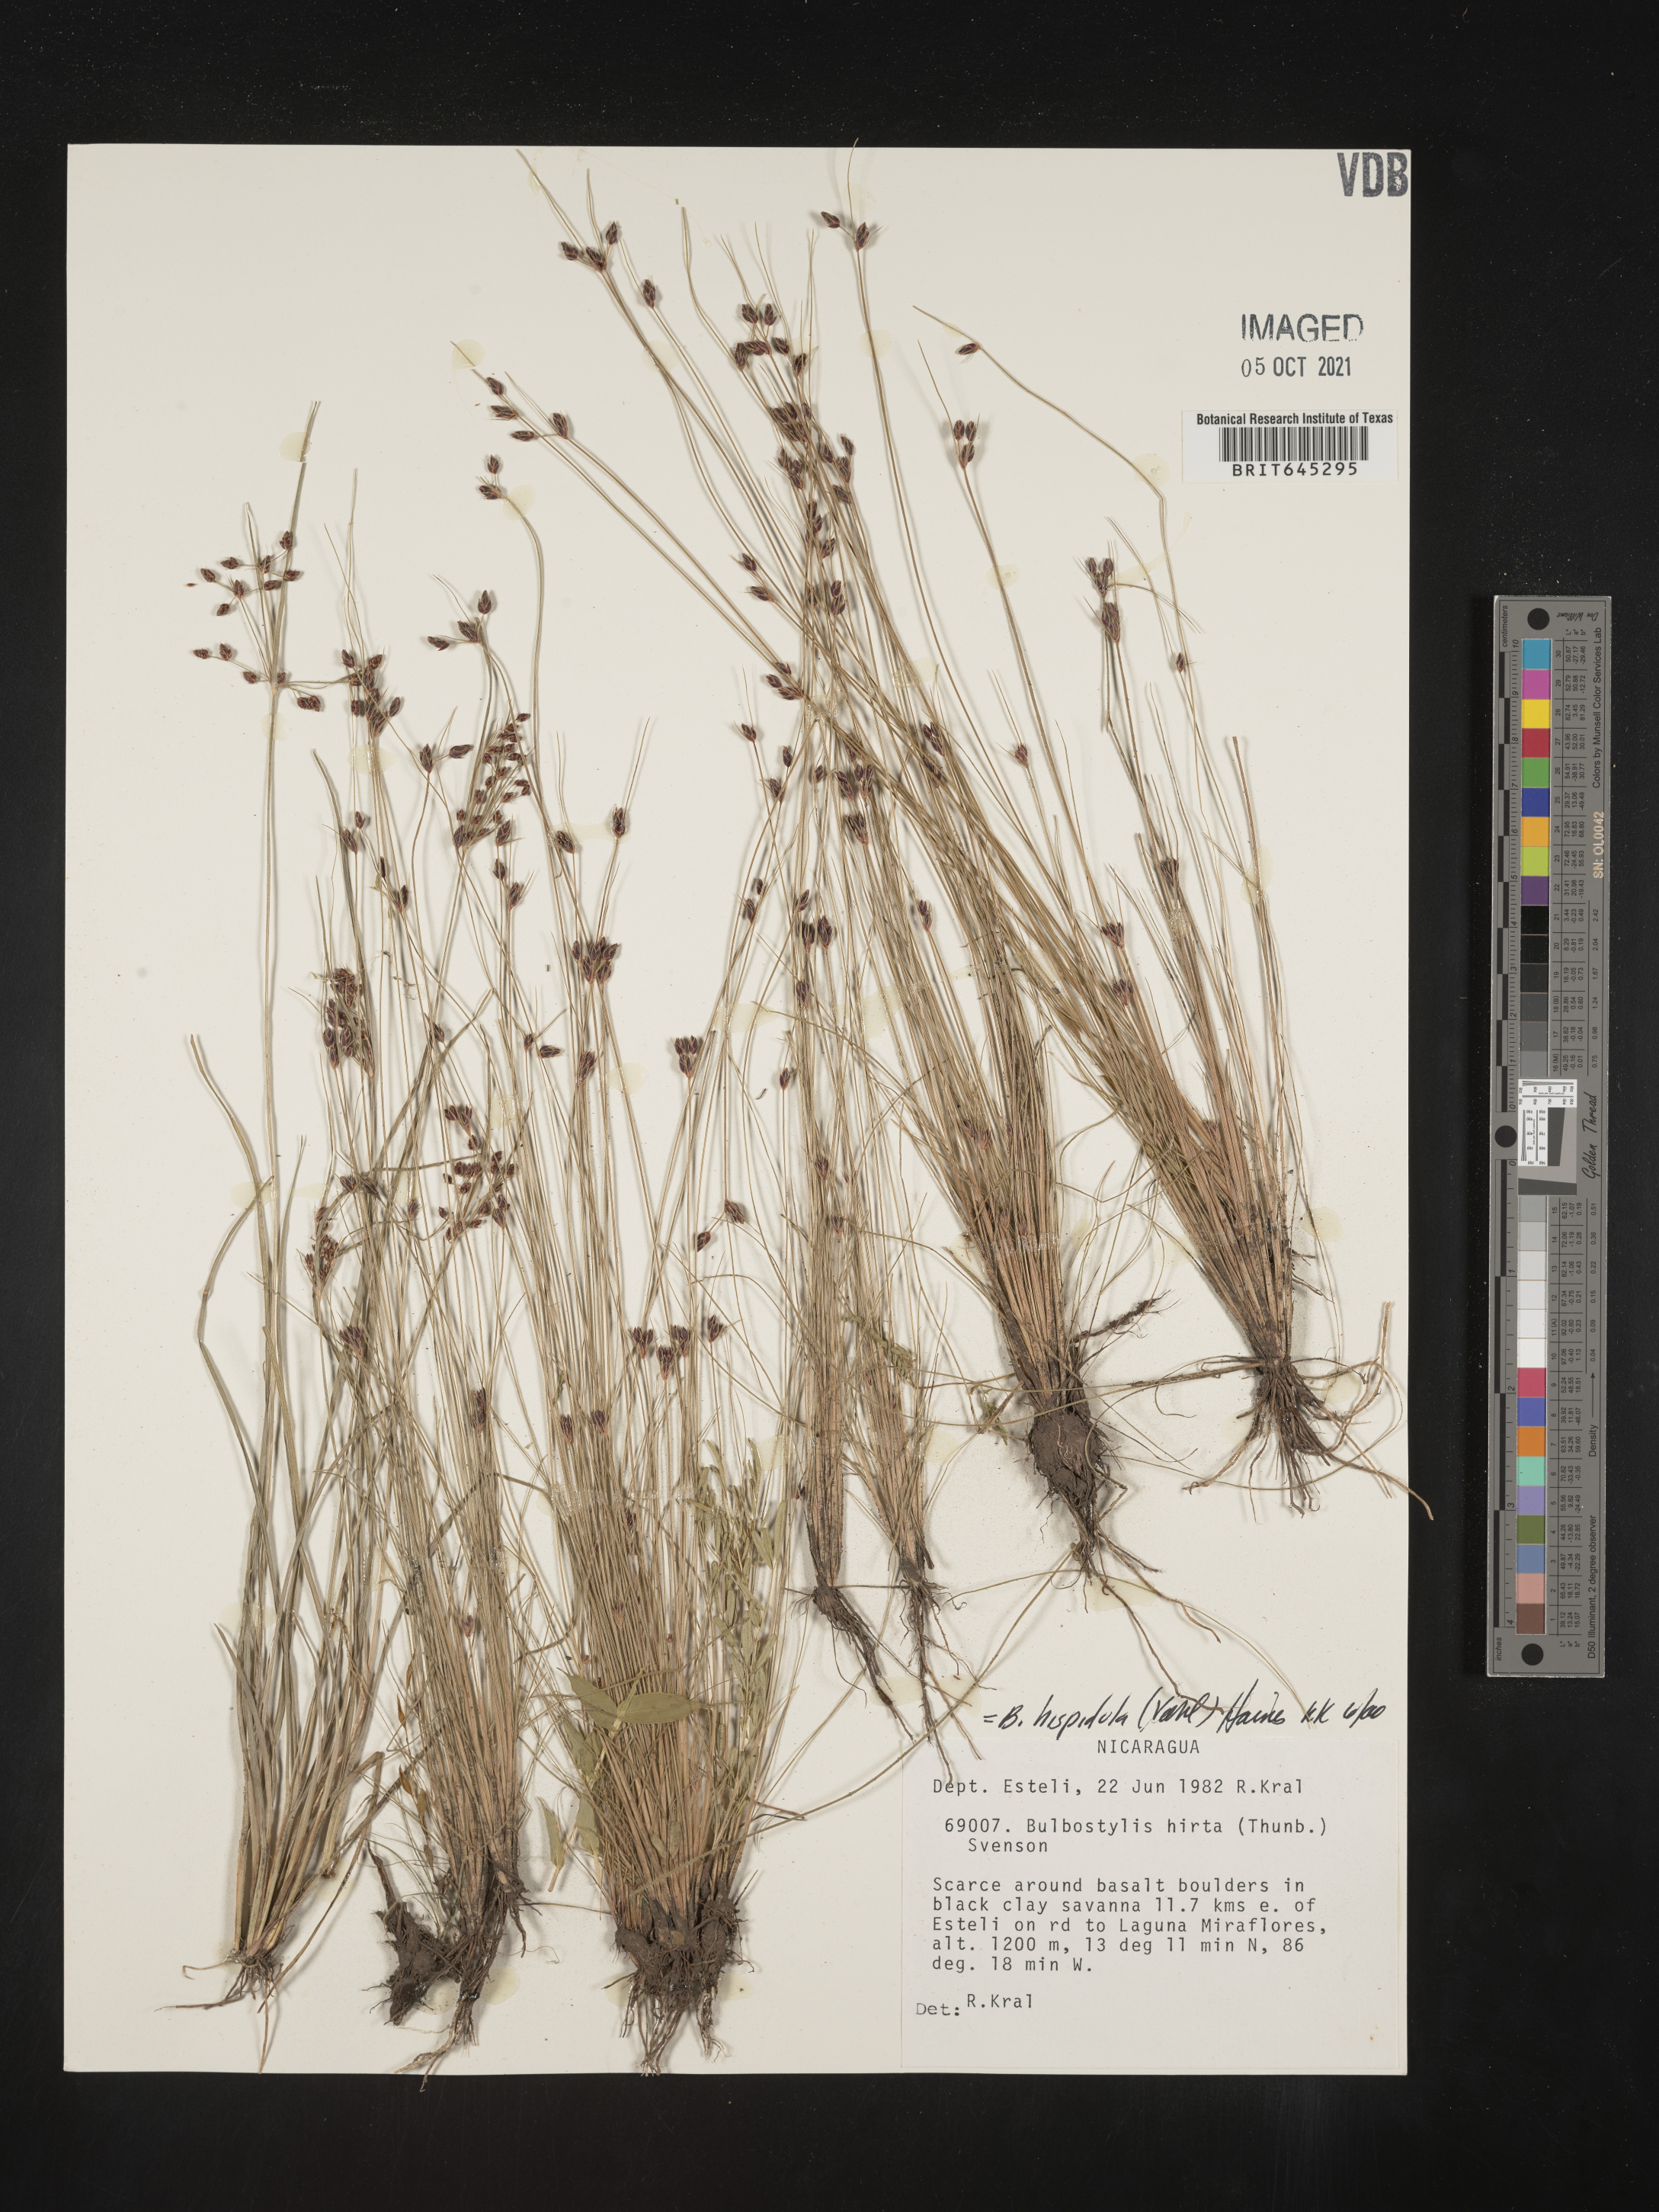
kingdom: Plantae
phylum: Tracheophyta
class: Liliopsida
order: Poales
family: Cyperaceae
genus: Bulbostylis
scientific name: Bulbostylis hispidula
